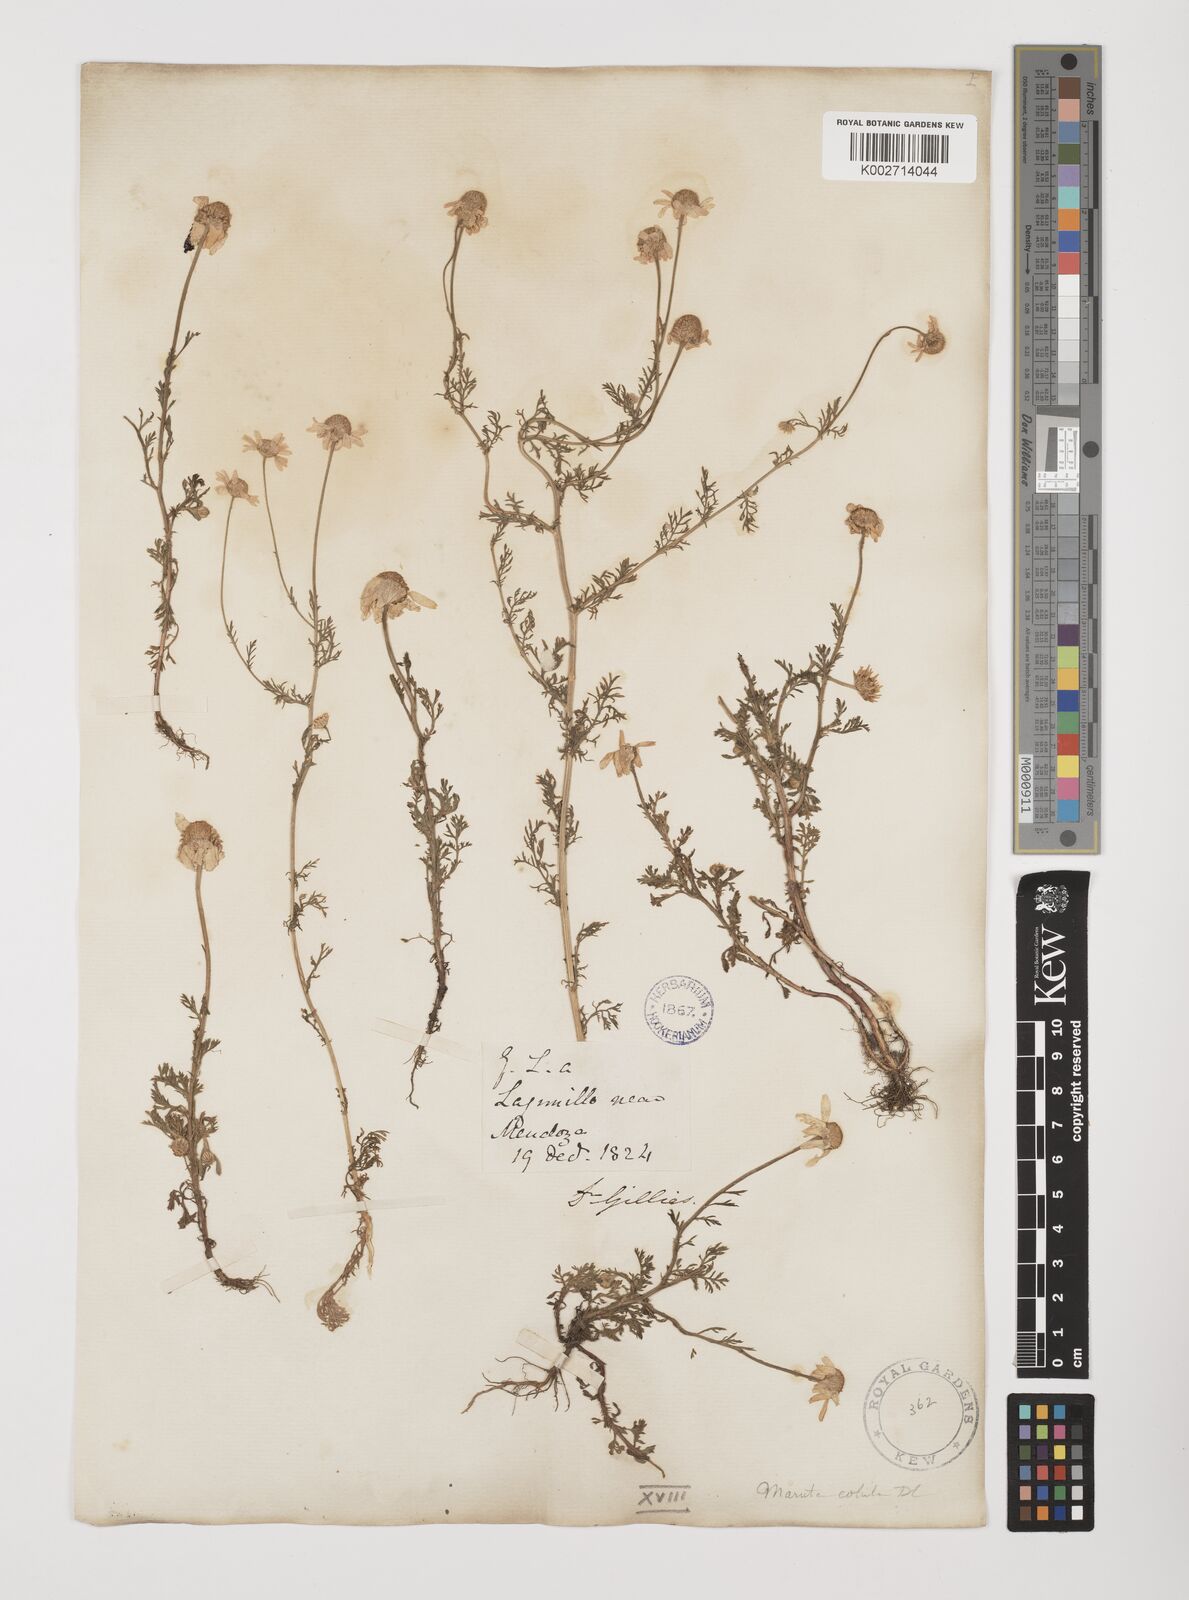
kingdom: Plantae
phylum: Tracheophyta
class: Magnoliopsida
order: Asterales
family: Asteraceae
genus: Anthemis
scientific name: Anthemis cotula
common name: Stinking chamomile
